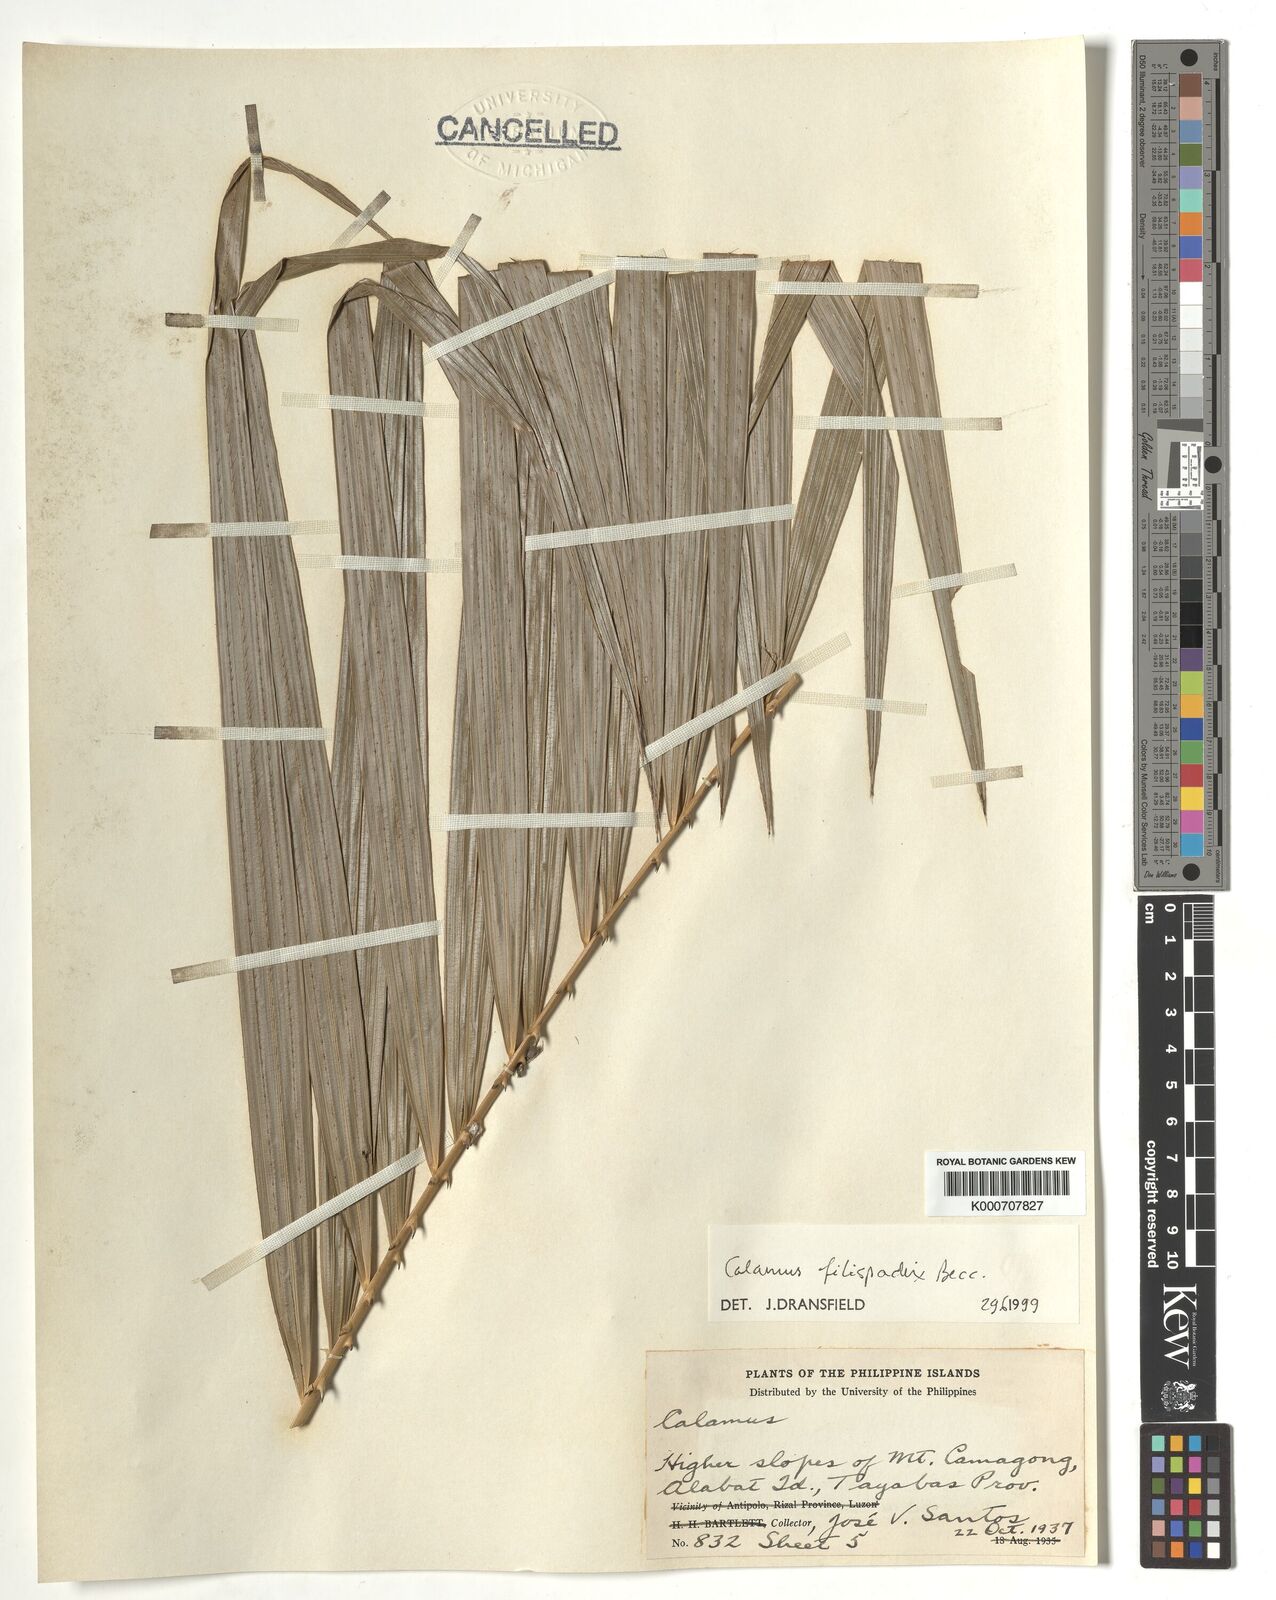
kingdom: Plantae
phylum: Tracheophyta
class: Liliopsida
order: Arecales
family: Arecaceae
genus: Calamus
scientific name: Calamus filispadix
